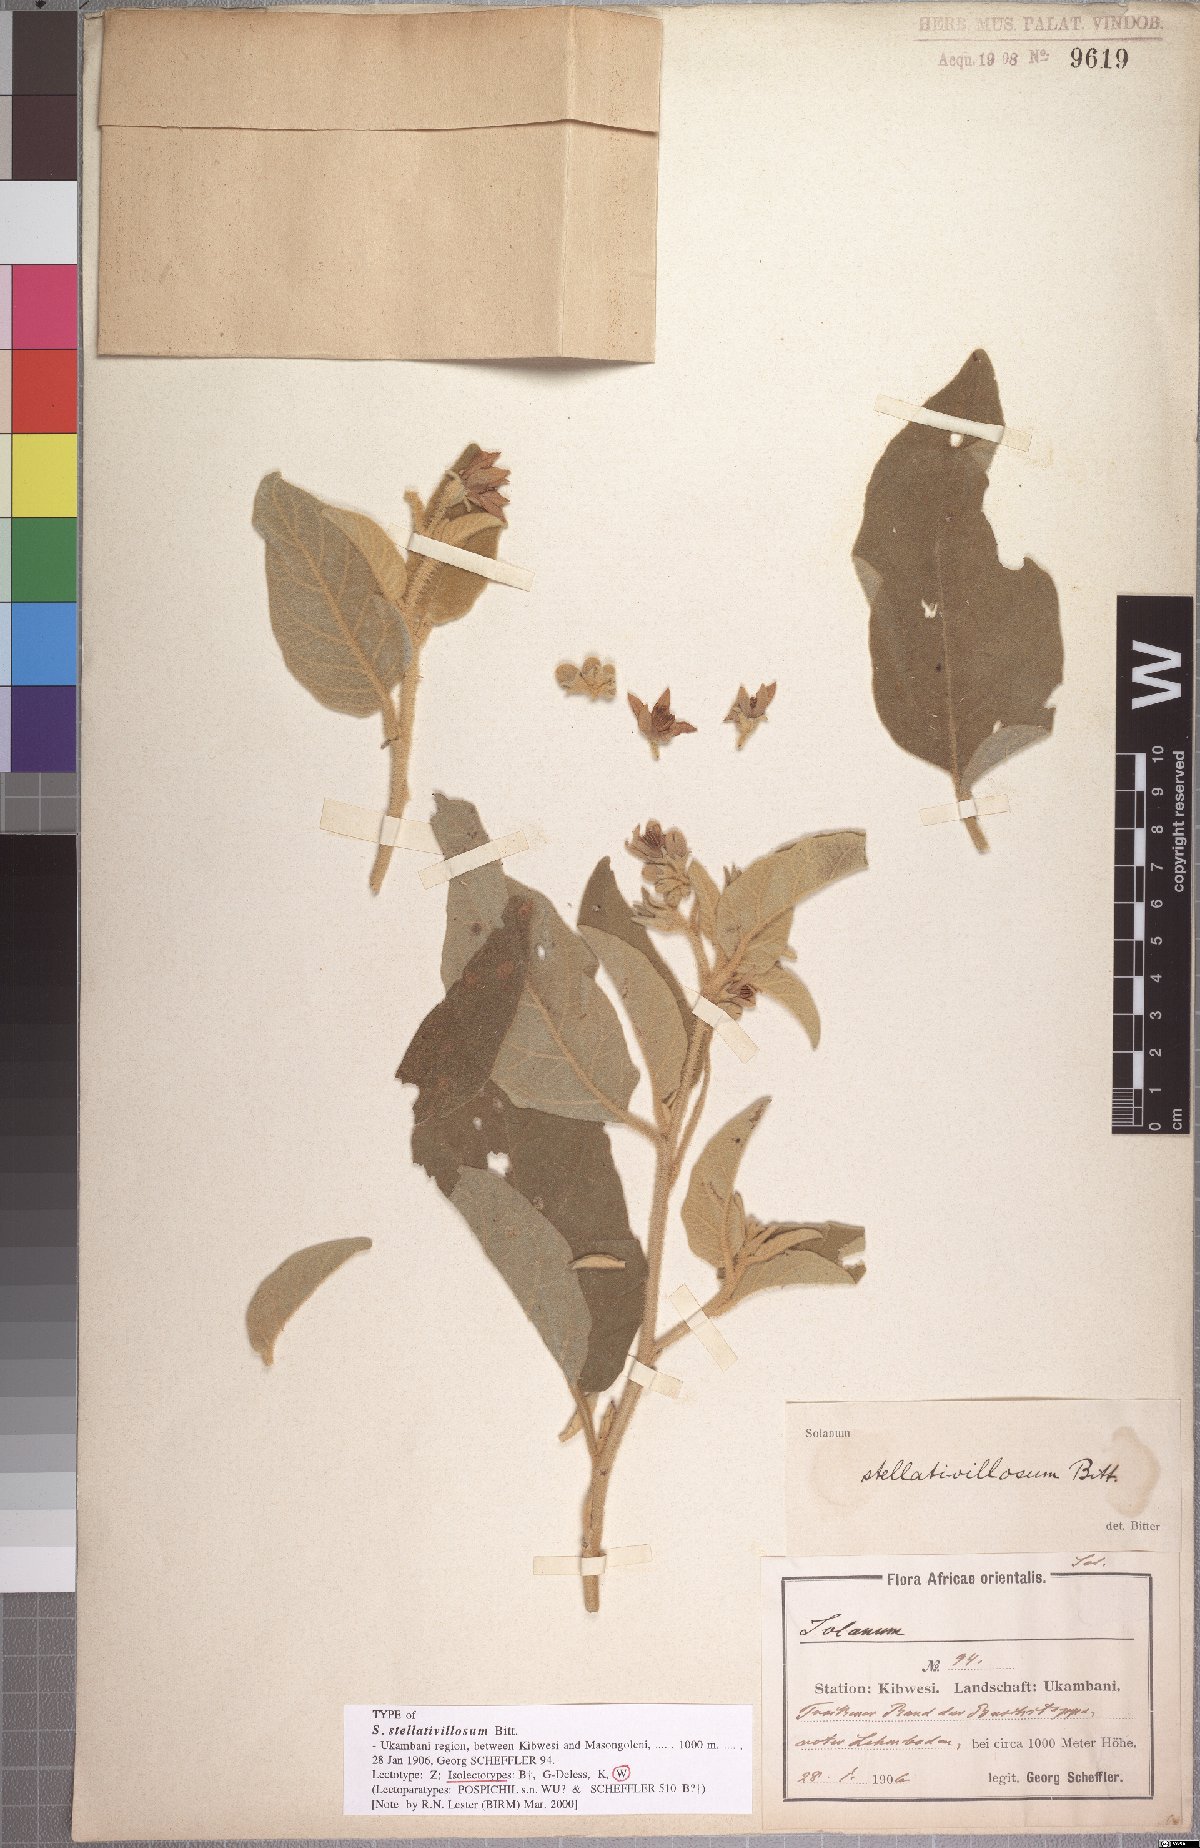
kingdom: Plantae
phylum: Tracheophyta
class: Magnoliopsida
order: Solanales
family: Solanaceae
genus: Solanum
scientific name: Solanum campylacanthum
